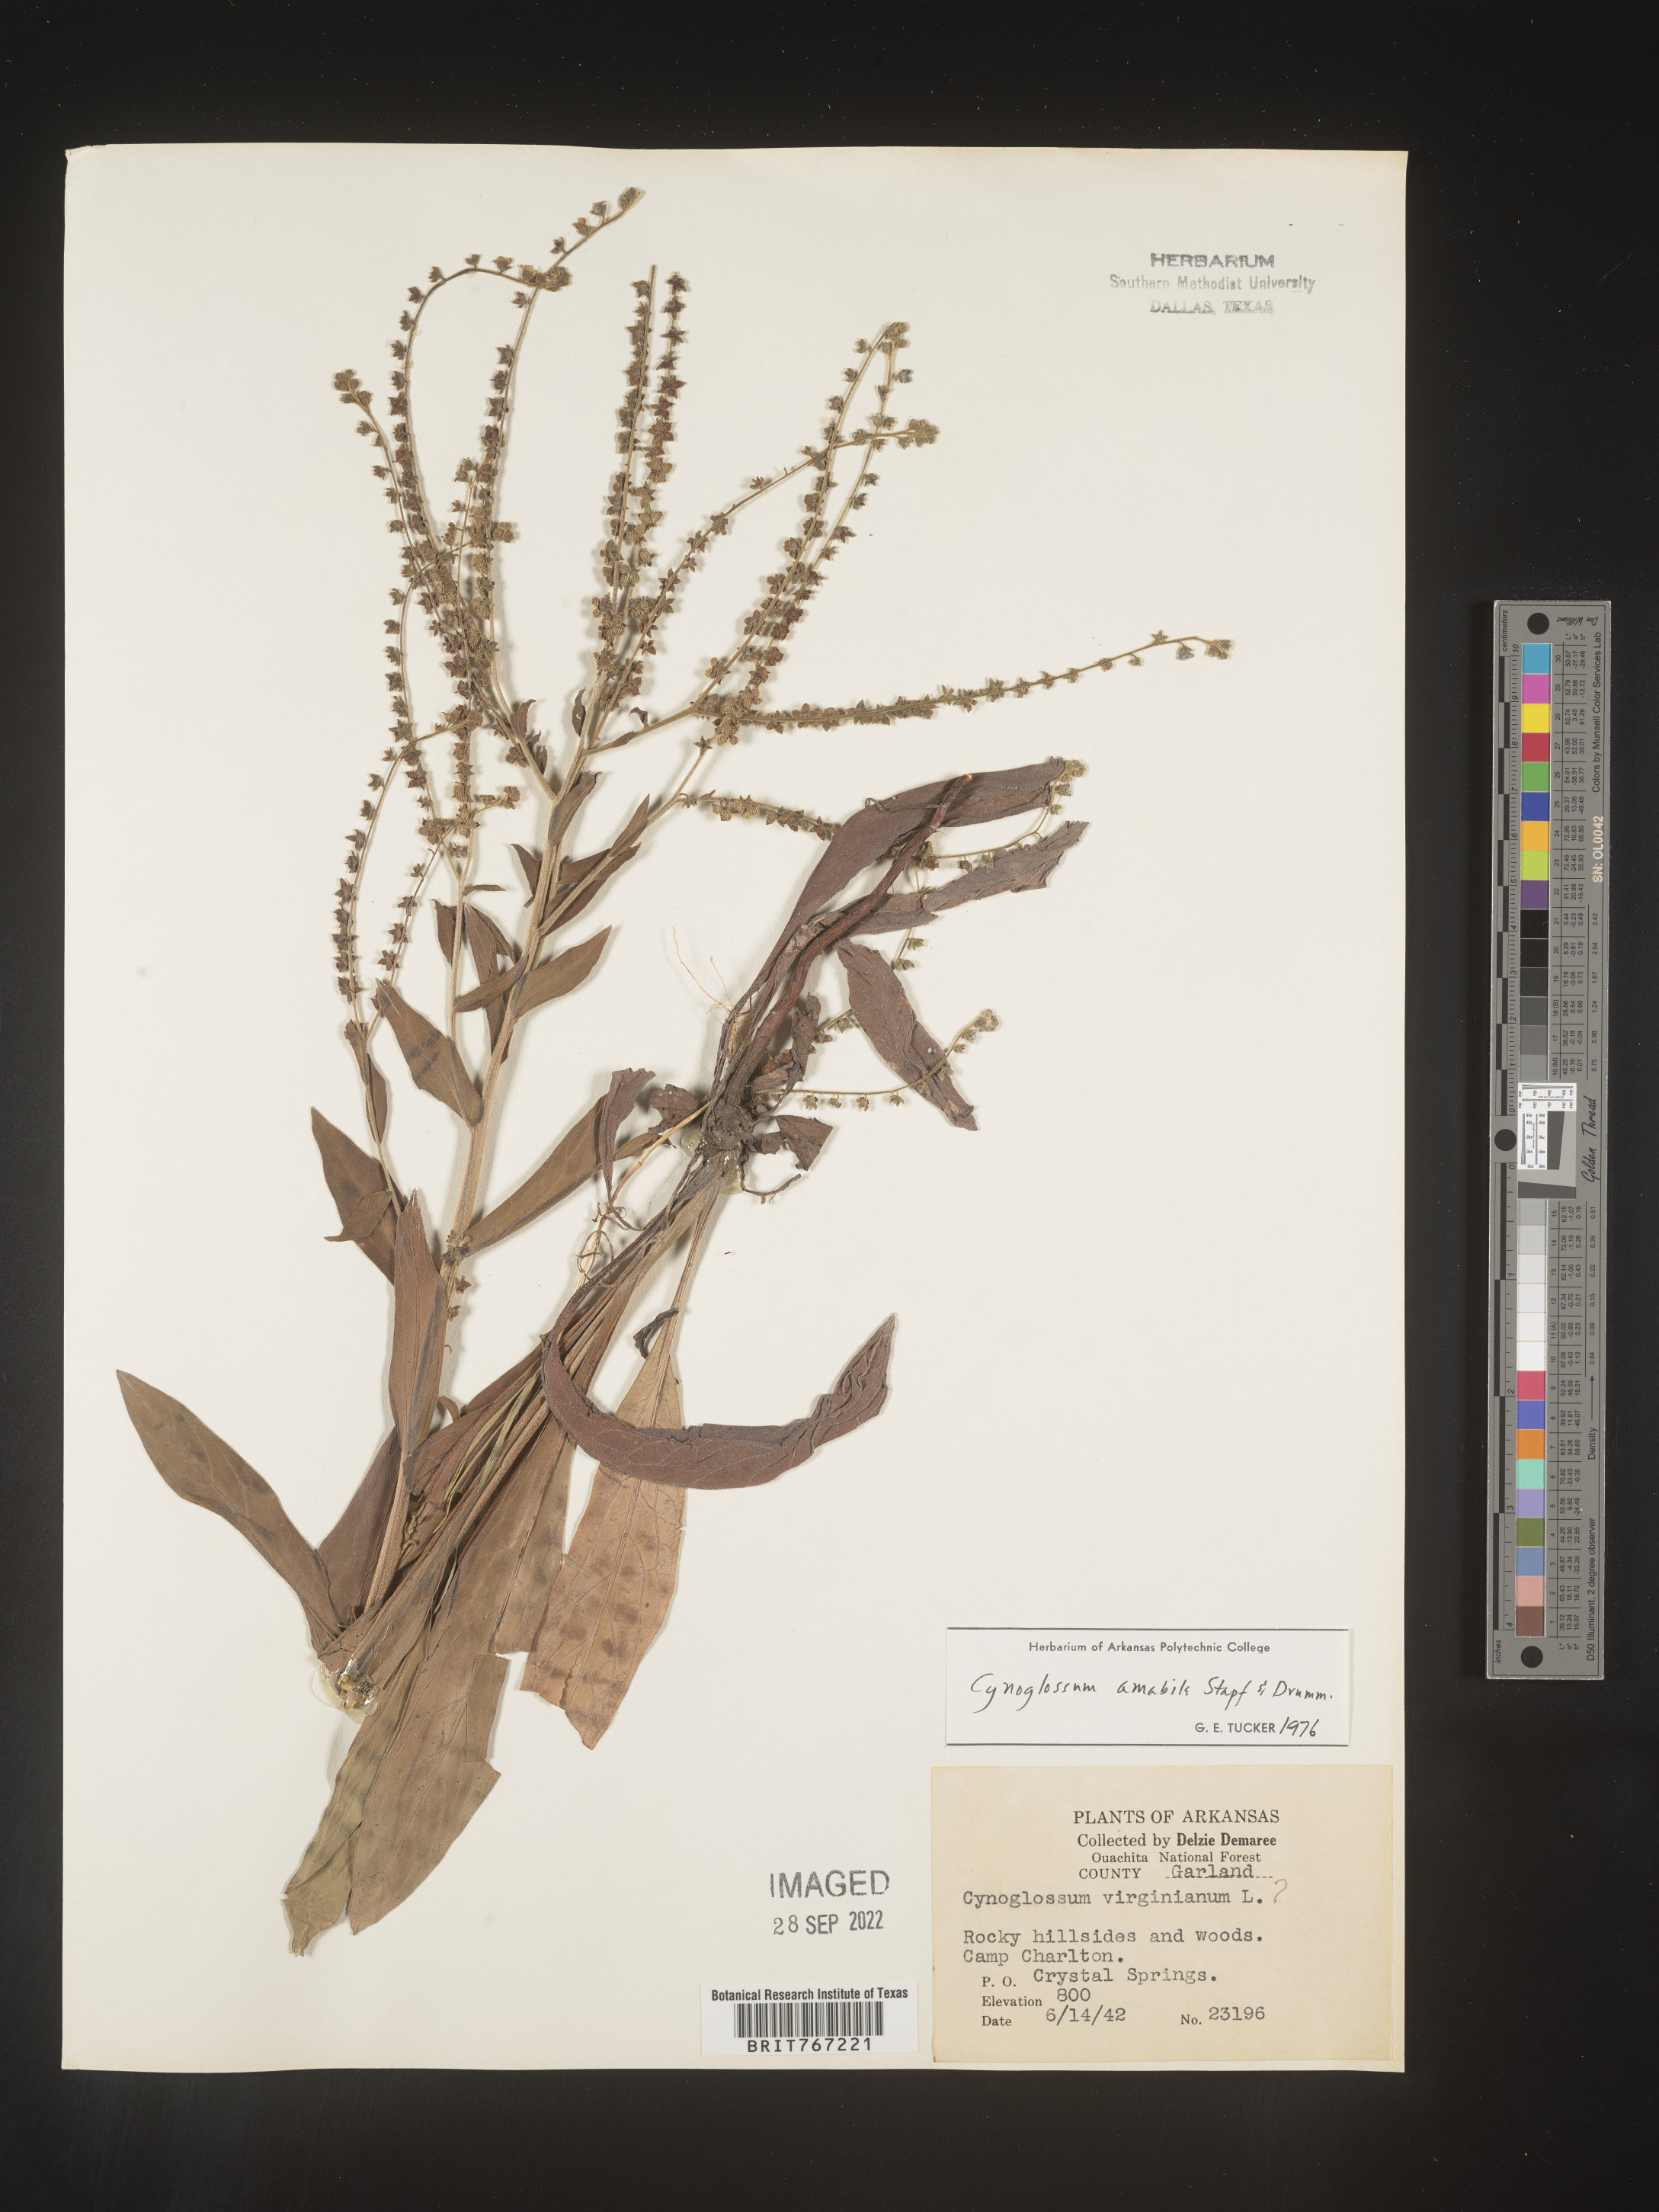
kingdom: Plantae
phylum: Tracheophyta
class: Magnoliopsida
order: Boraginales
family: Boraginaceae
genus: Cynoglossum
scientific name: Cynoglossum
